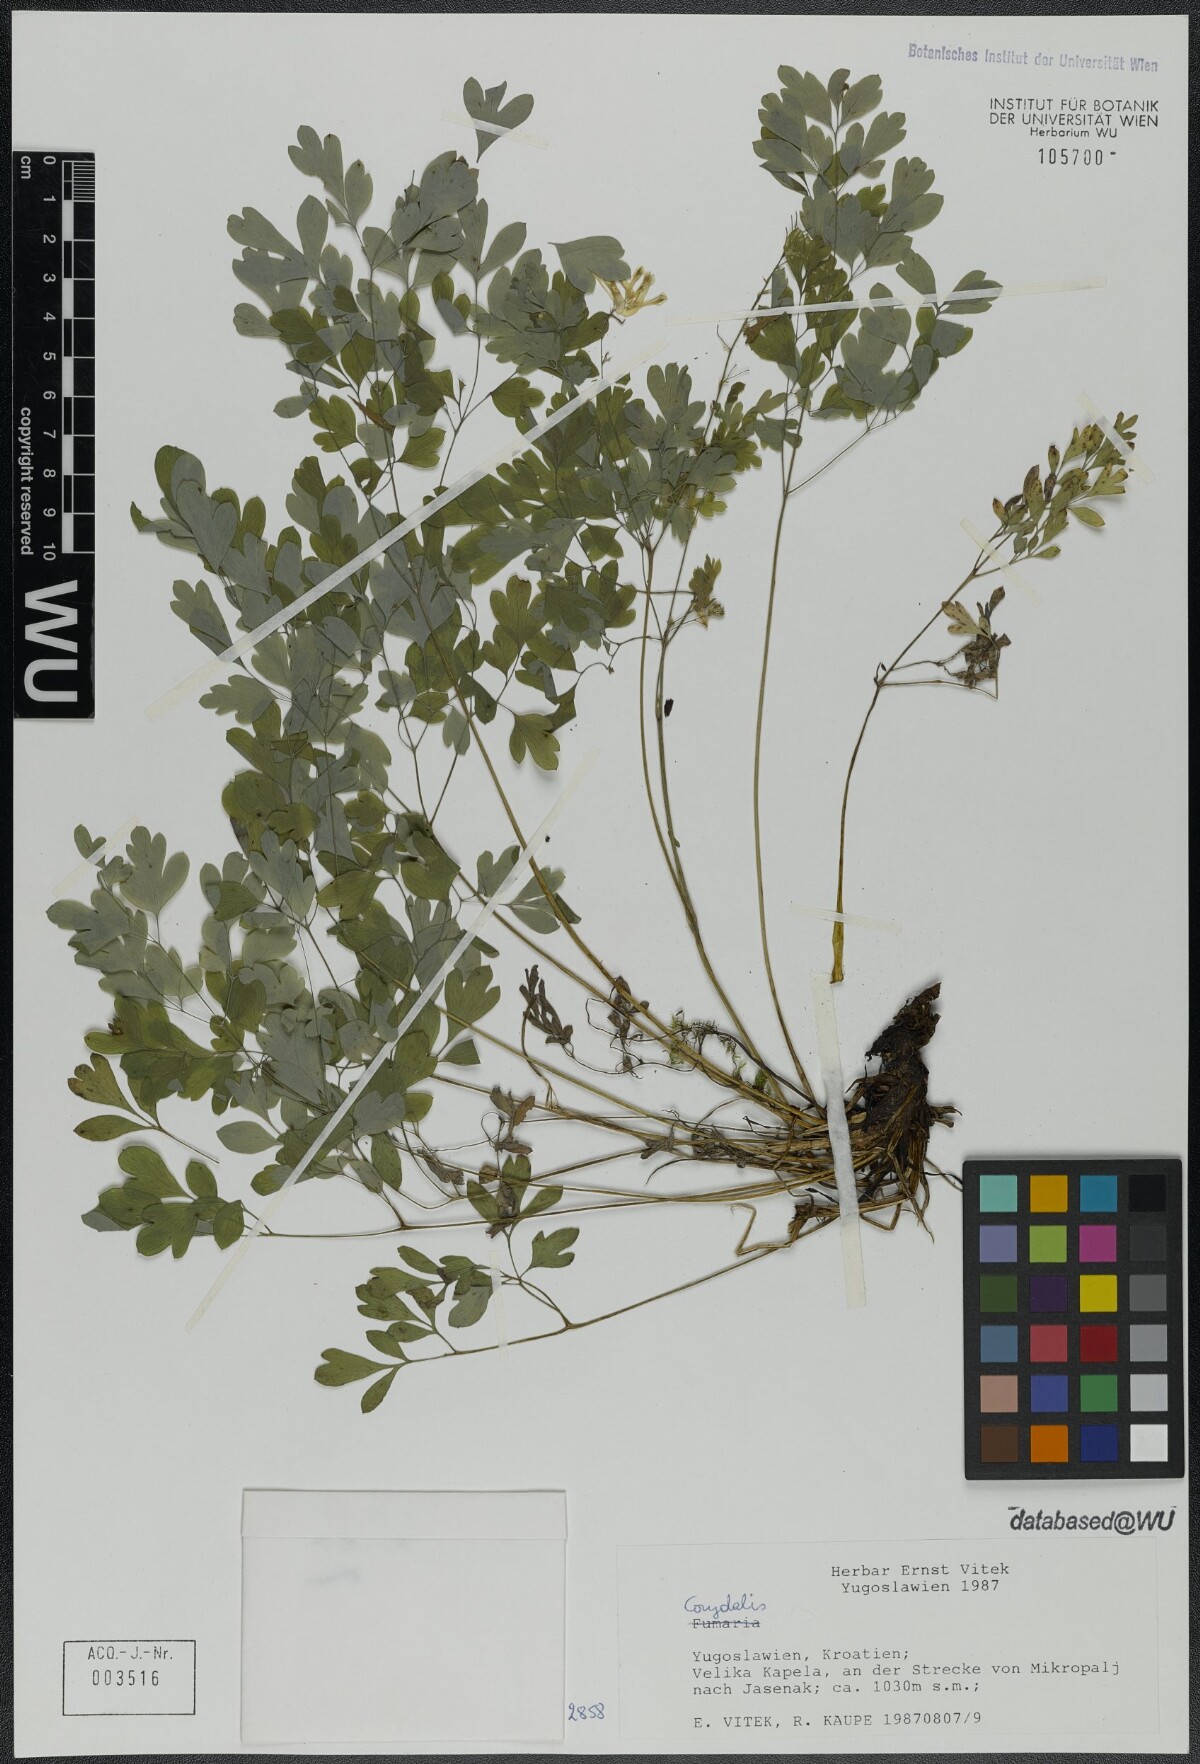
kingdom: Plantae
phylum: Tracheophyta
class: Magnoliopsida
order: Ranunculales
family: Papaveraceae
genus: Pseudofumaria
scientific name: Pseudofumaria alba
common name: Pale corydalis
